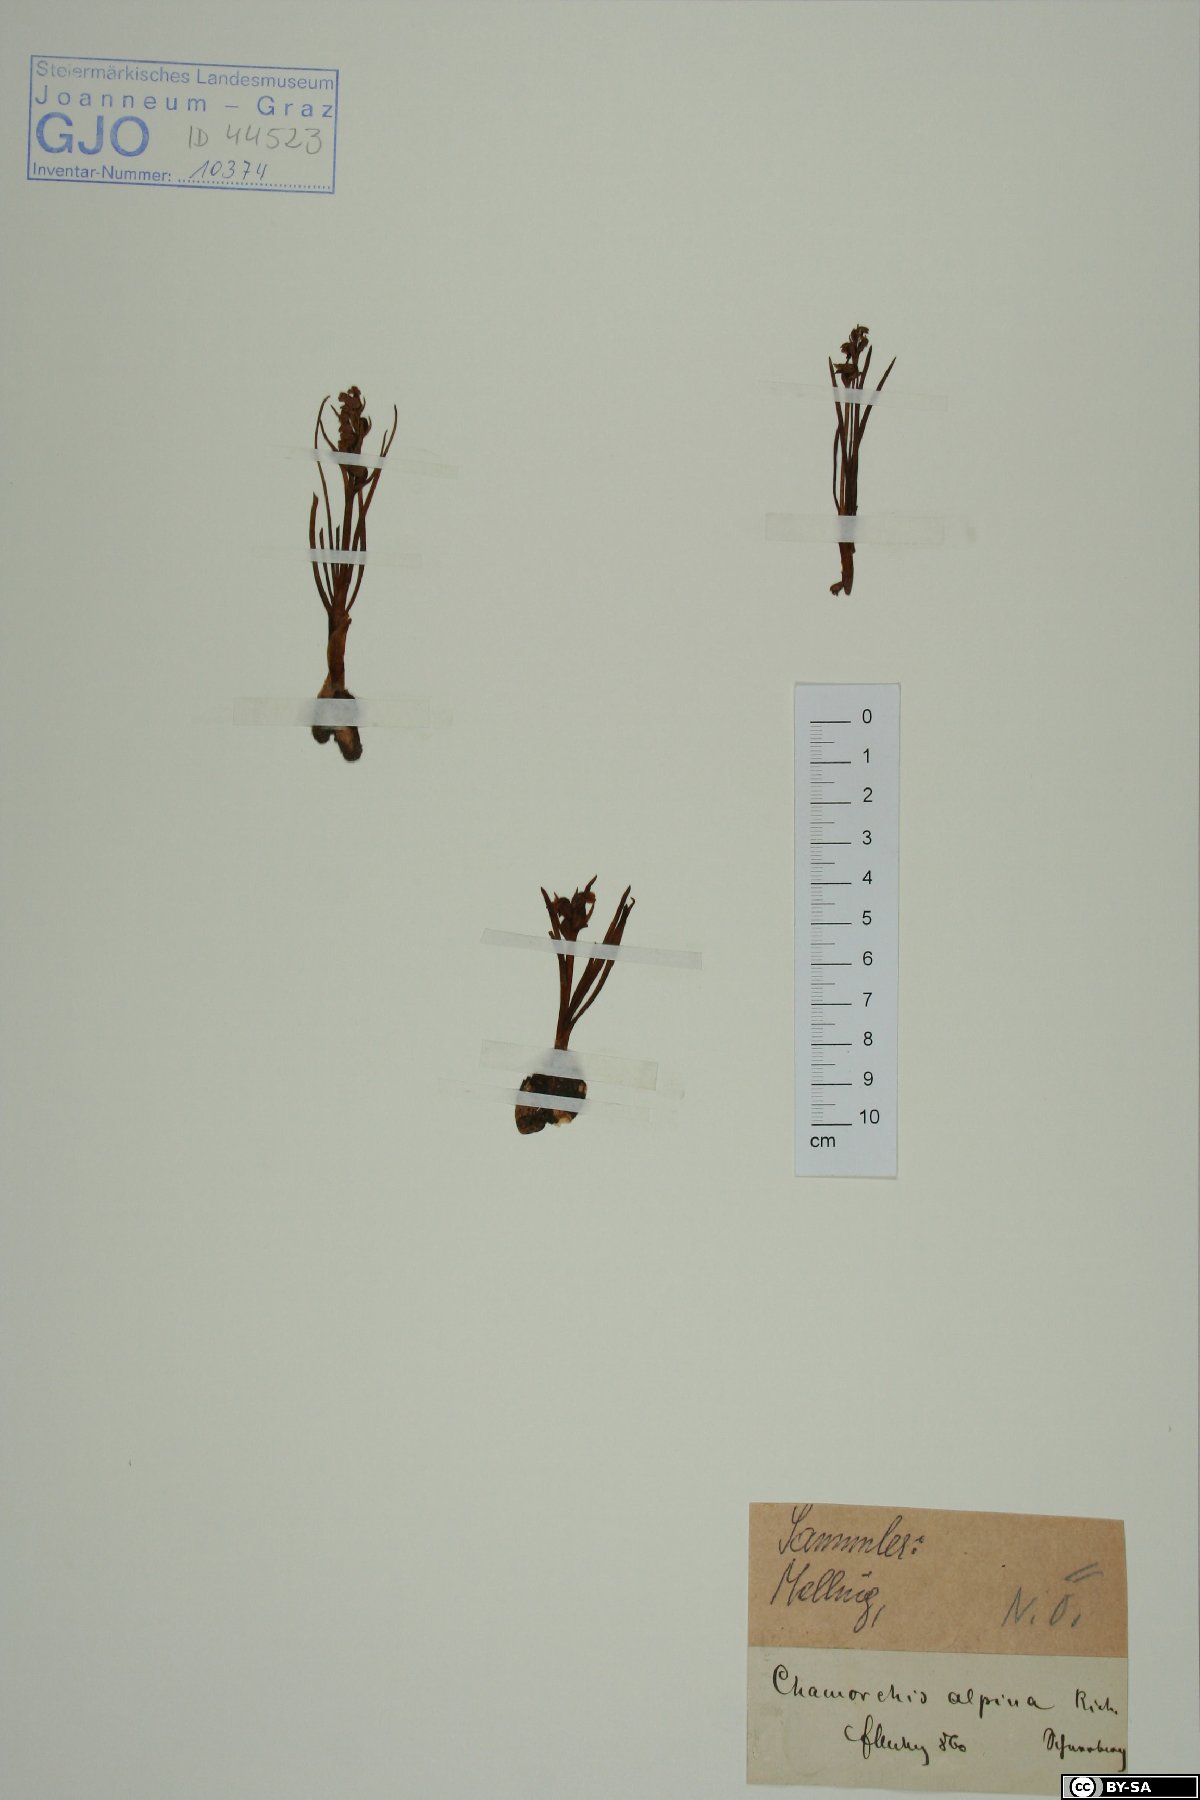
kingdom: Plantae
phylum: Tracheophyta
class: Liliopsida
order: Asparagales
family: Orchidaceae
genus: Chamorchis
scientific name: Chamorchis alpina
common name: Alpine chamorchis
